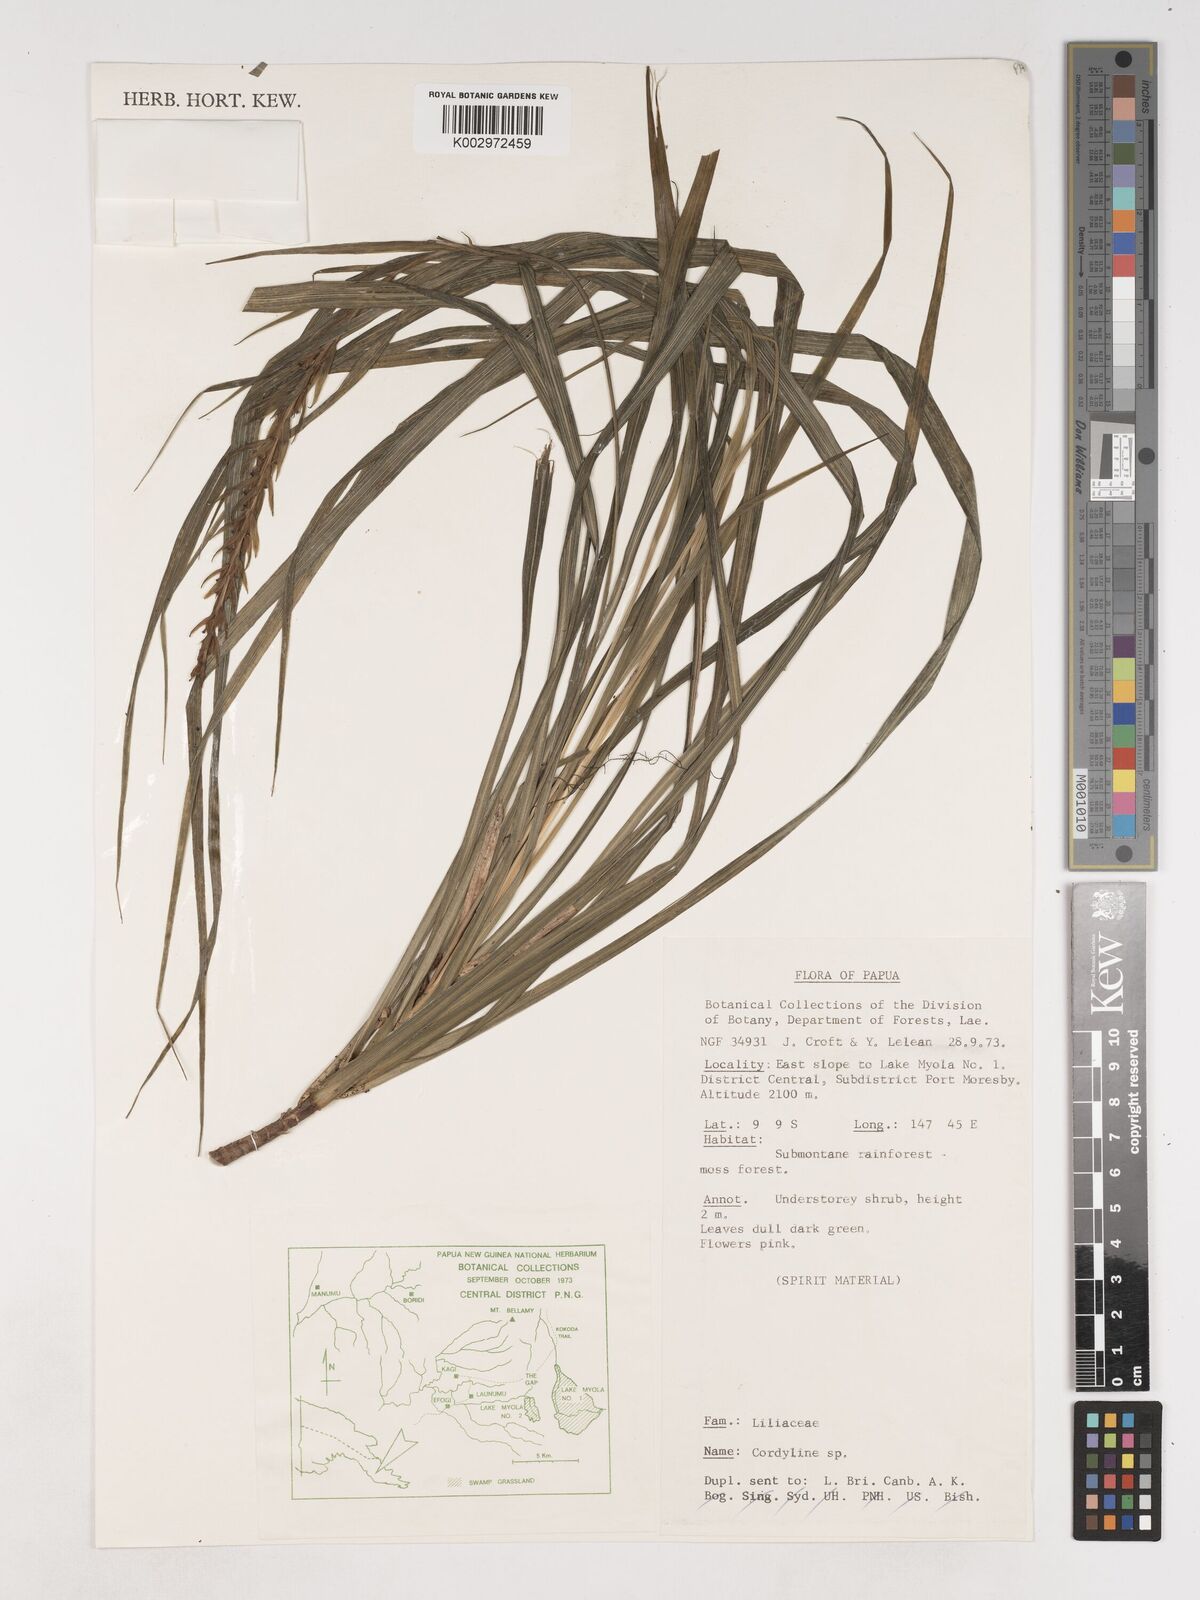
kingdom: Plantae
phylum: Tracheophyta
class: Liliopsida
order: Asparagales
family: Asparagaceae
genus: Cordyline
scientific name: Cordyline angustissima
